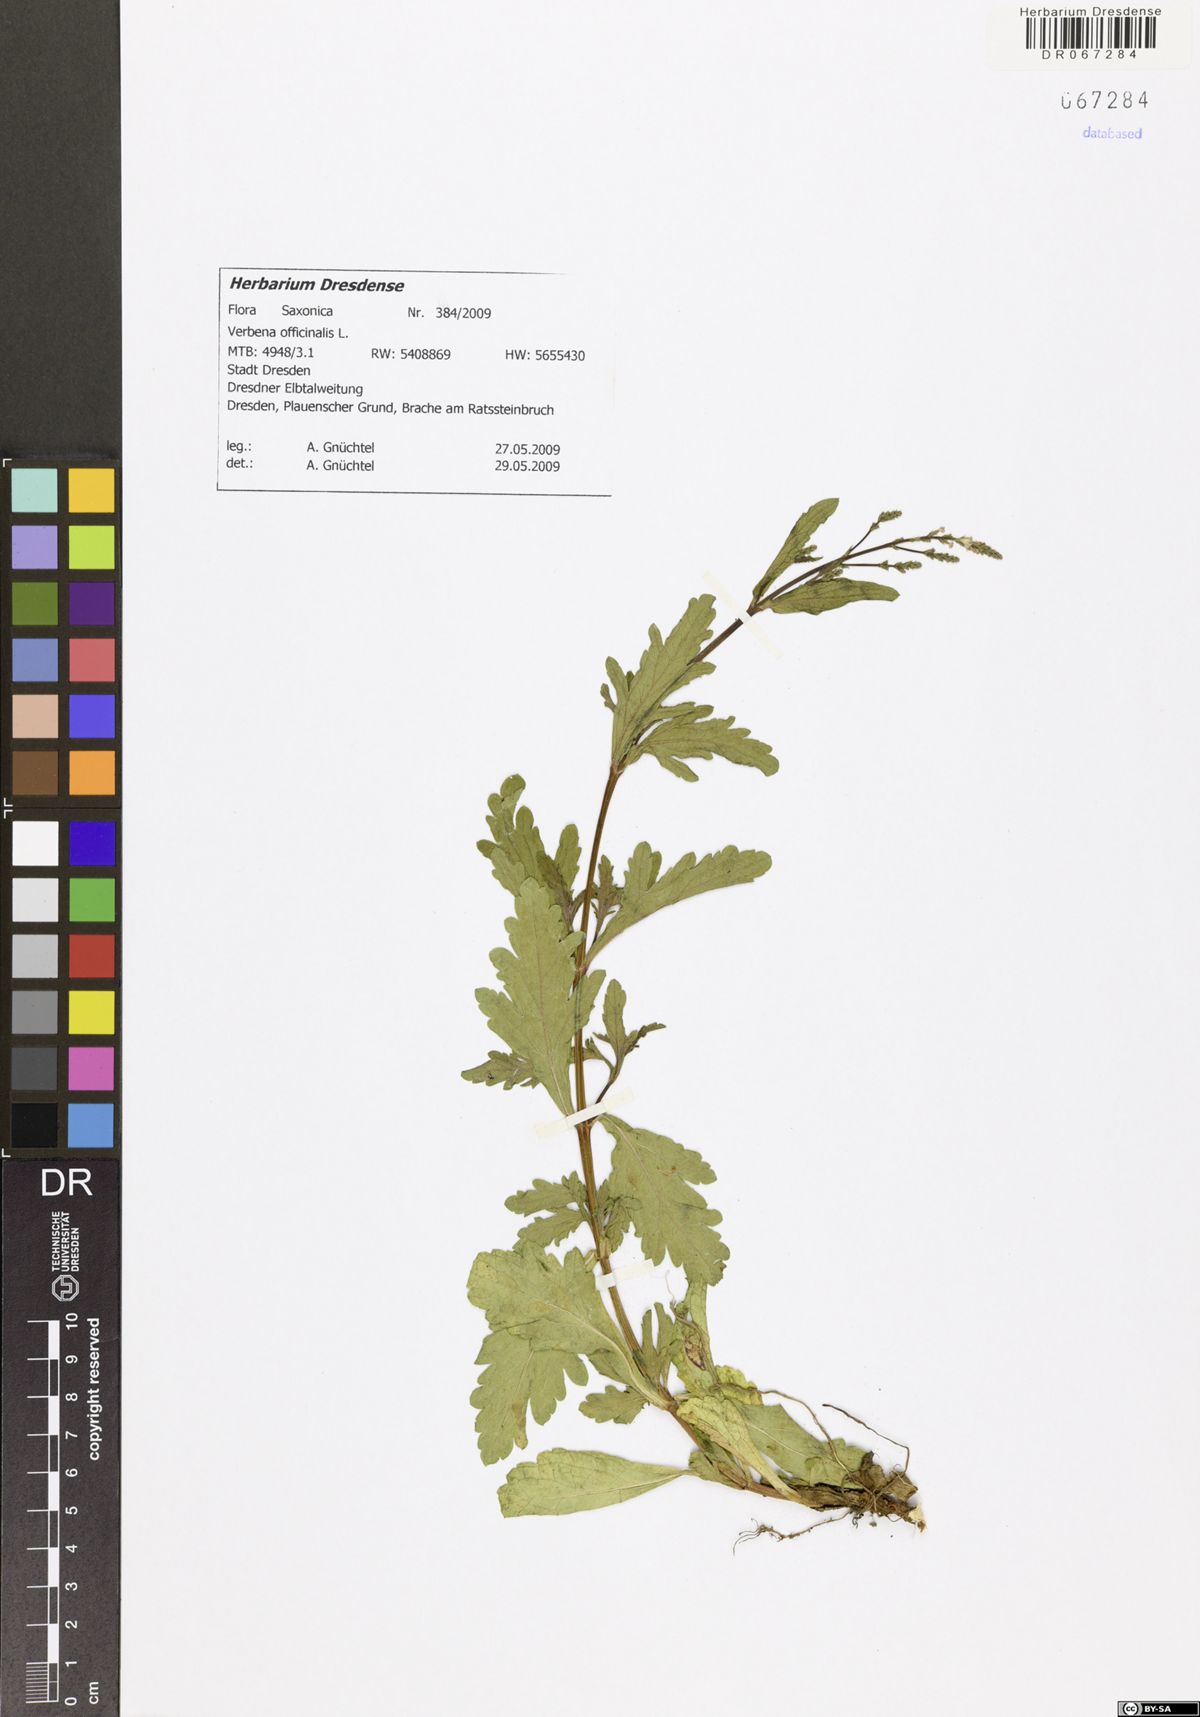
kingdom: Plantae
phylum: Tracheophyta
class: Magnoliopsida
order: Lamiales
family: Verbenaceae
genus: Verbena
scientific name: Verbena officinalis
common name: Vervain
